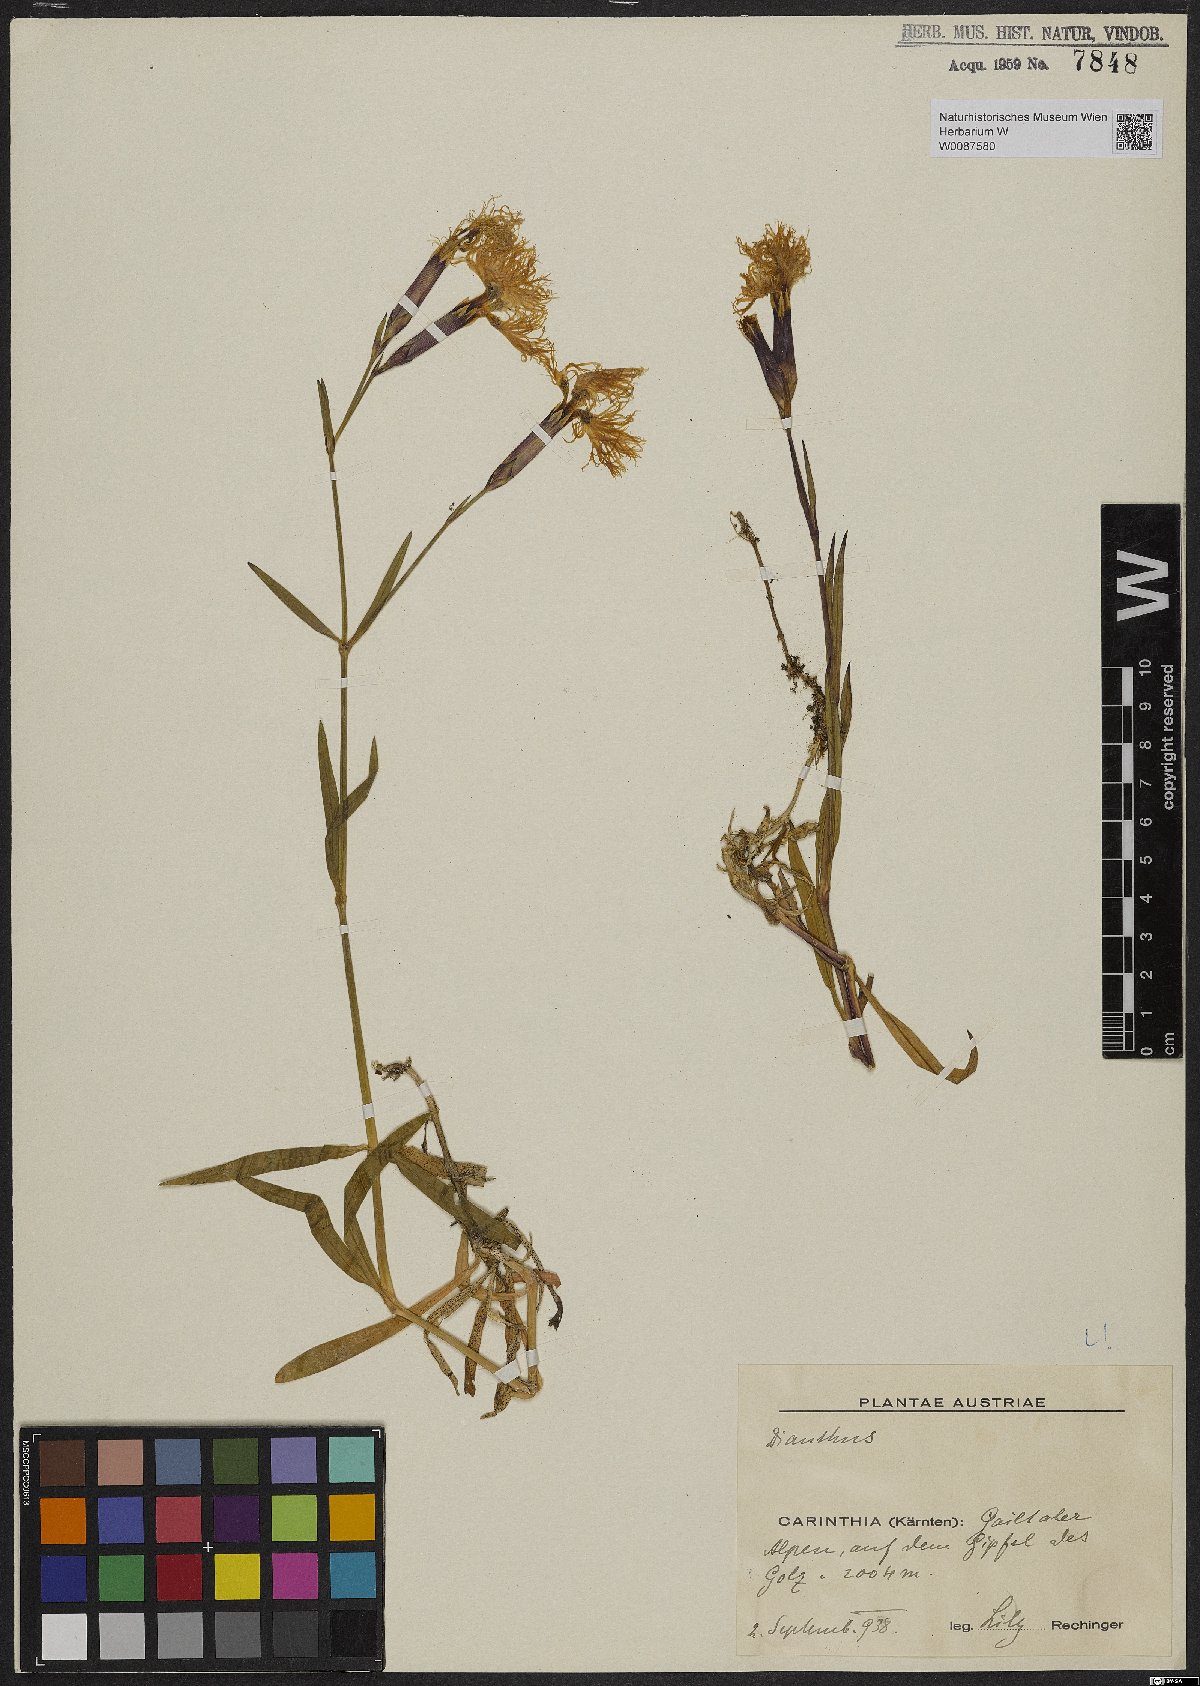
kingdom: Plantae
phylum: Tracheophyta
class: Magnoliopsida
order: Caryophyllales
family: Caryophyllaceae
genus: Dianthus
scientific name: Dianthus superbus
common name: Fringed pink
